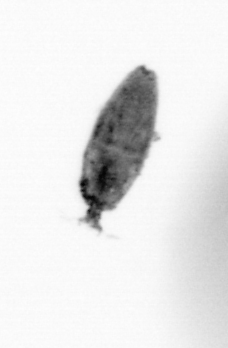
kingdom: Animalia
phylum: Arthropoda
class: Maxillopoda
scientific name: Maxillopoda
